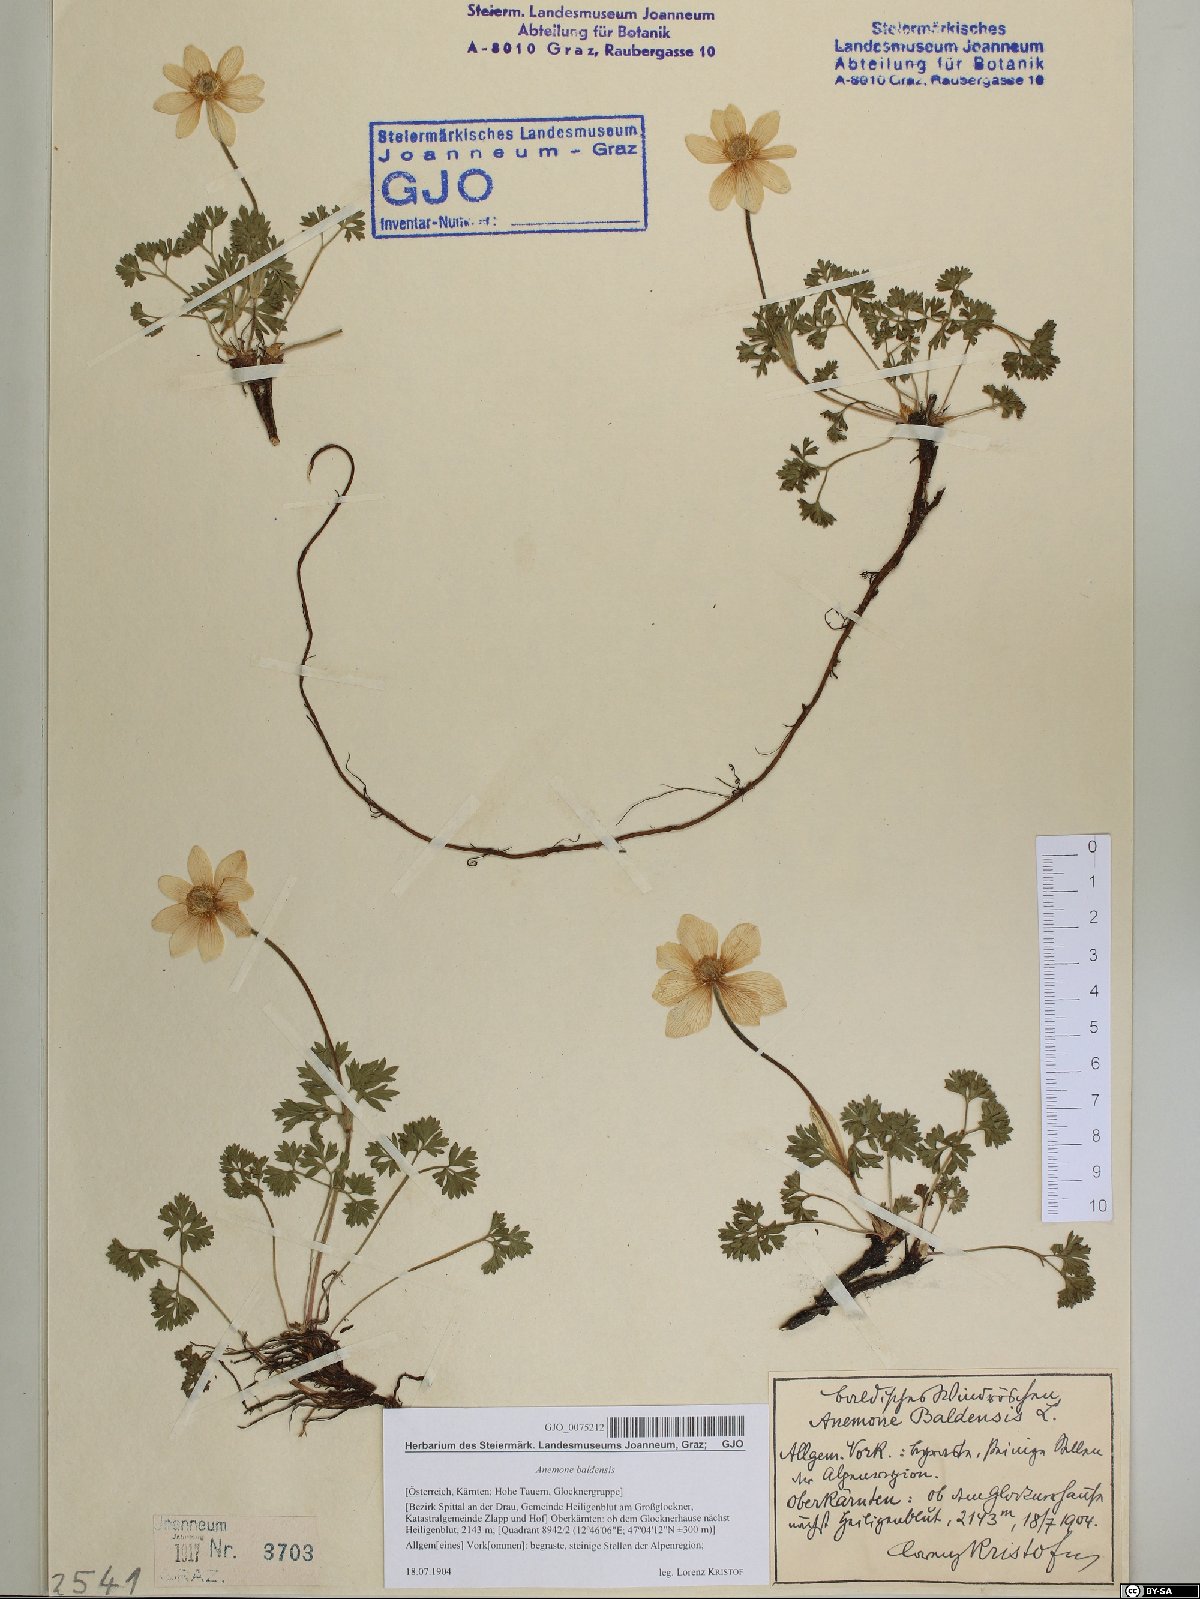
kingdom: Plantae
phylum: Tracheophyta
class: Magnoliopsida
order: Ranunculales
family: Ranunculaceae
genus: Anemone
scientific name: Anemone baldensis
